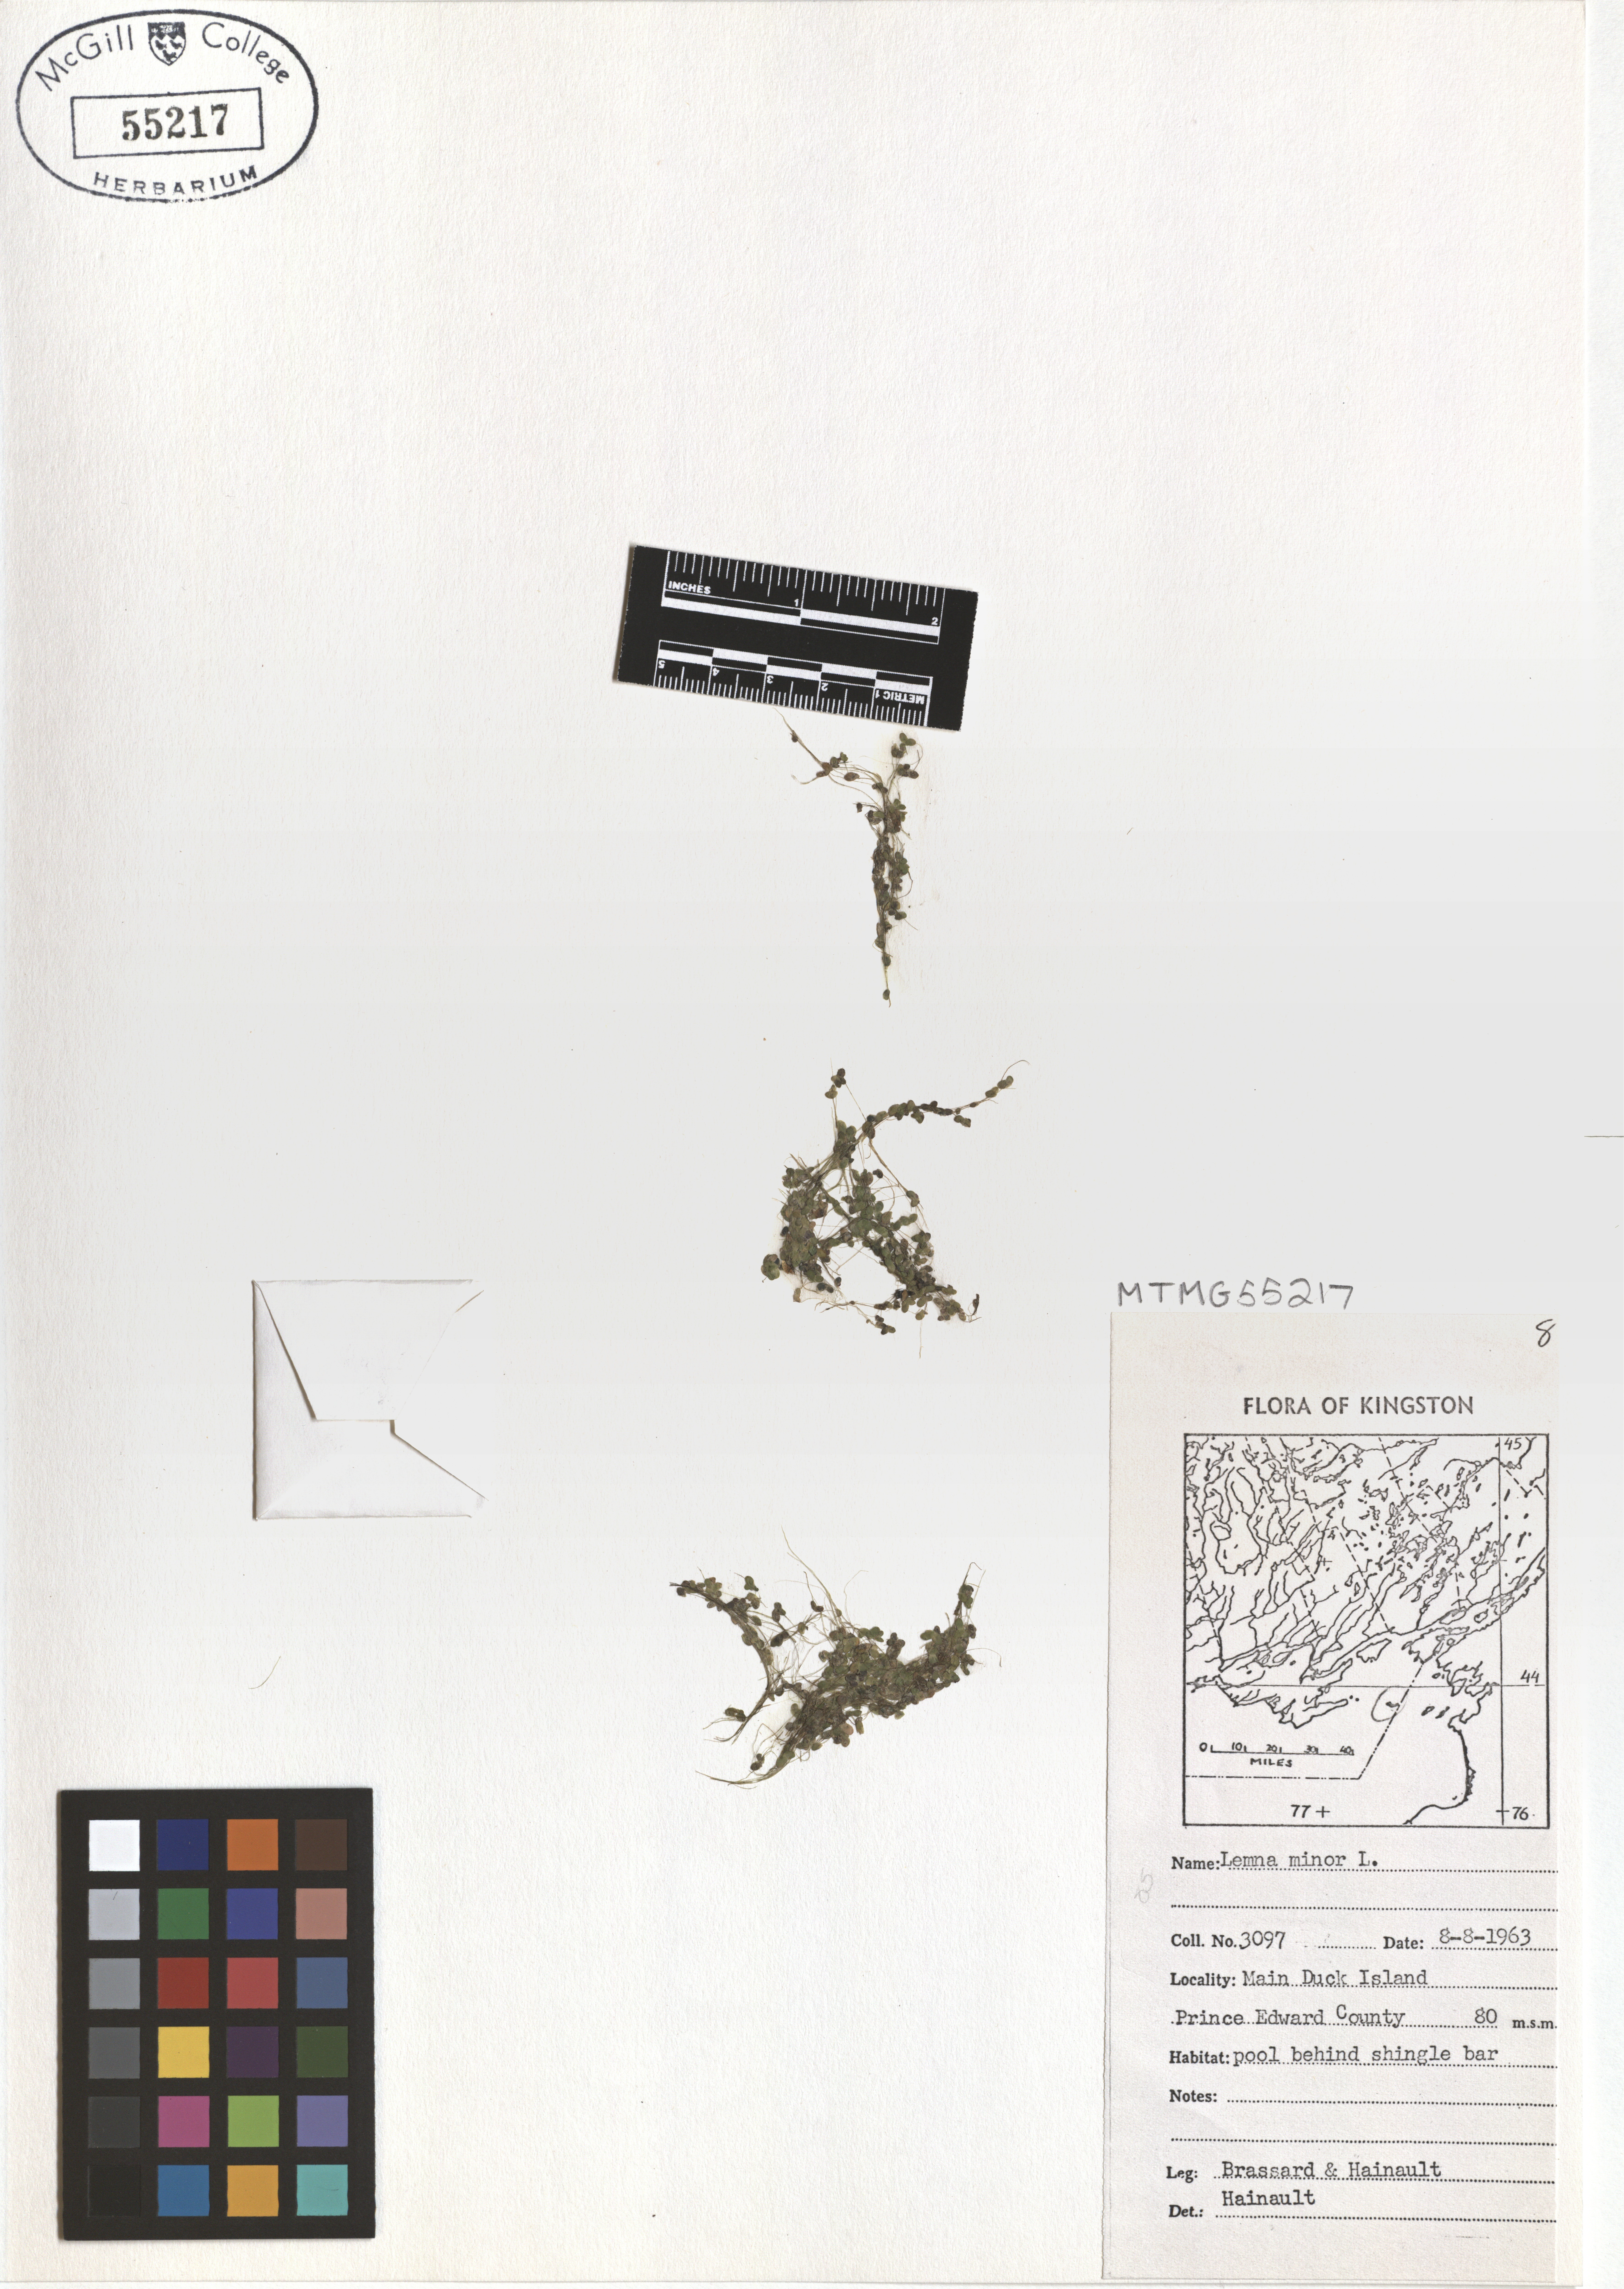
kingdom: Plantae
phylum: Tracheophyta
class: Liliopsida
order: Alismatales
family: Araceae
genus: Lemna
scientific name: Lemna minor
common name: Common duckweed
